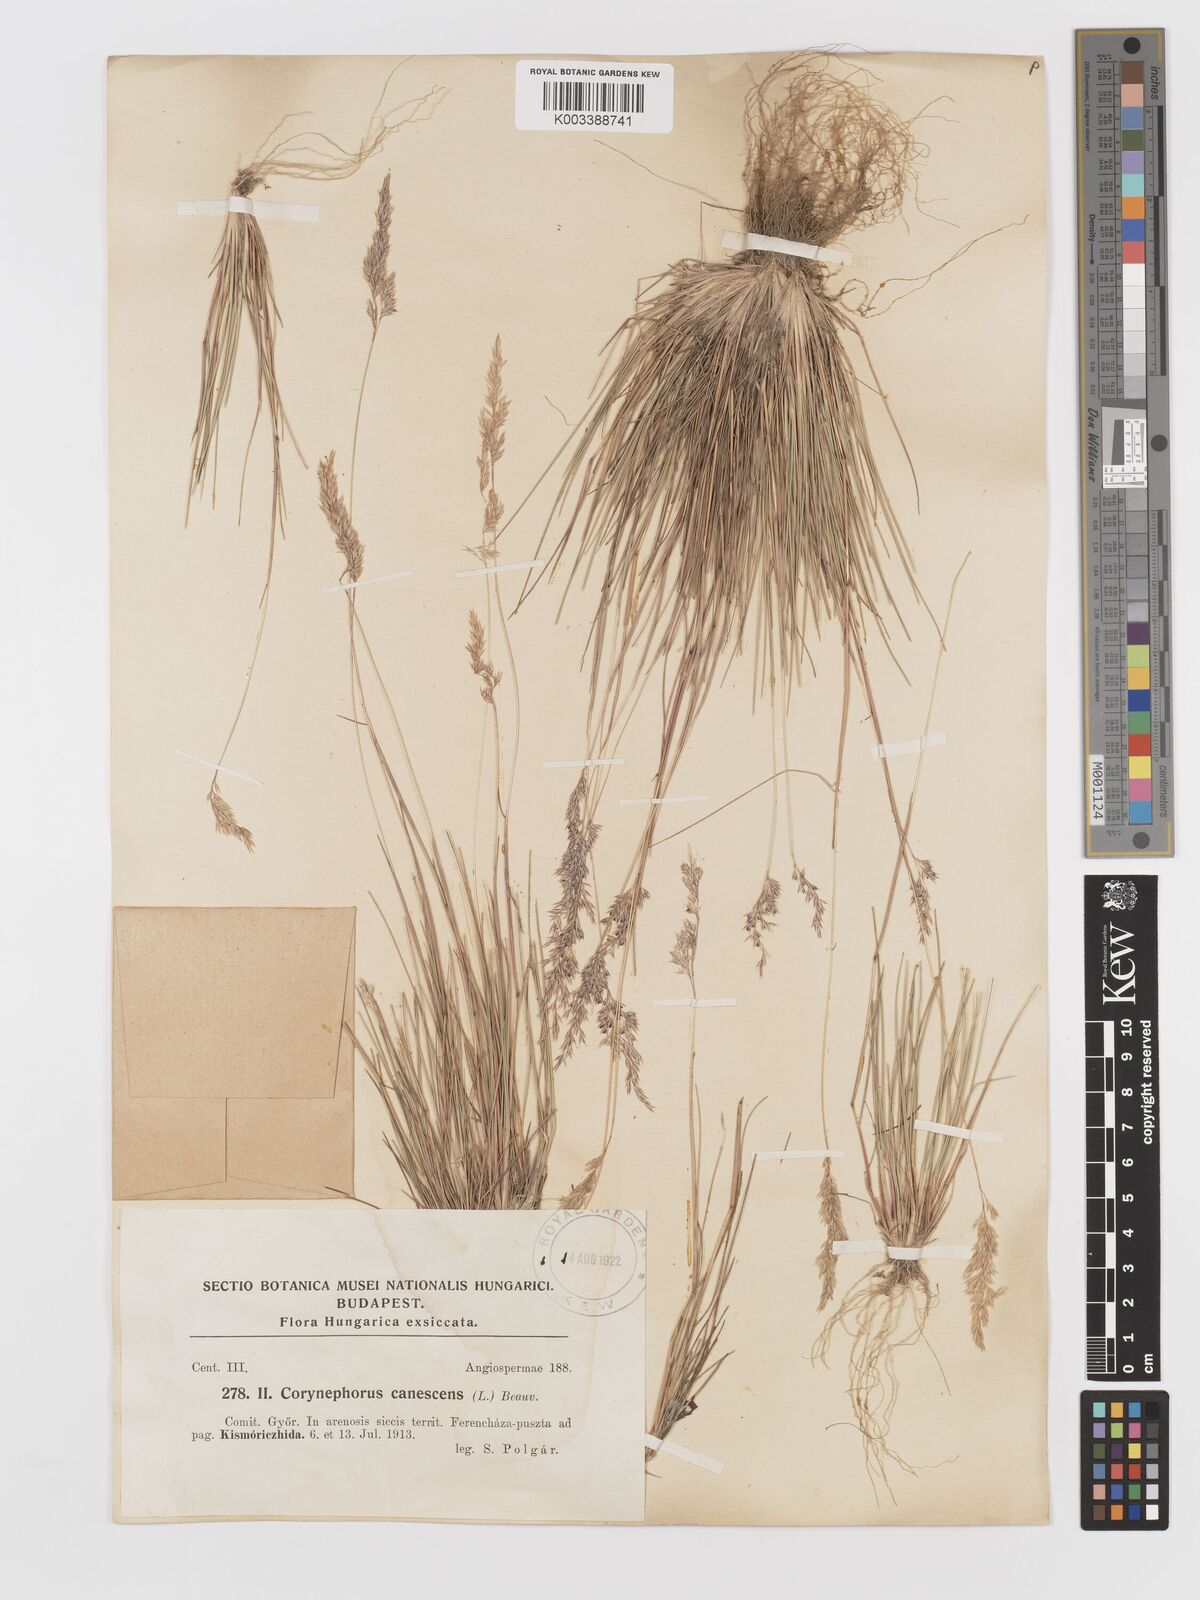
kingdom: Plantae
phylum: Tracheophyta
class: Liliopsida
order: Poales
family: Poaceae
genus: Corynephorus
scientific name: Corynephorus canescens
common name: Grey hair-grass
